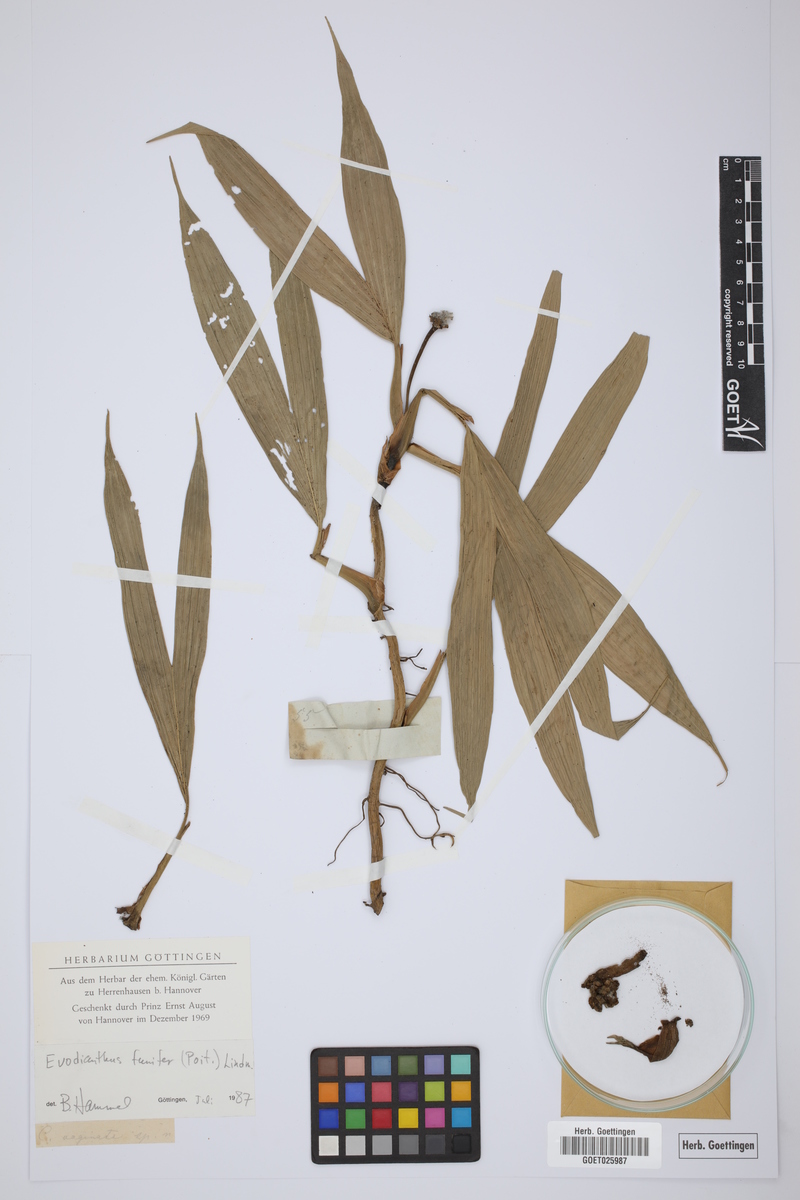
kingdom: Plantae
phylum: Tracheophyta
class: Liliopsida
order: Pandanales
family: Cyclanthaceae
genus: Evodianthus
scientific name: Evodianthus funifer
